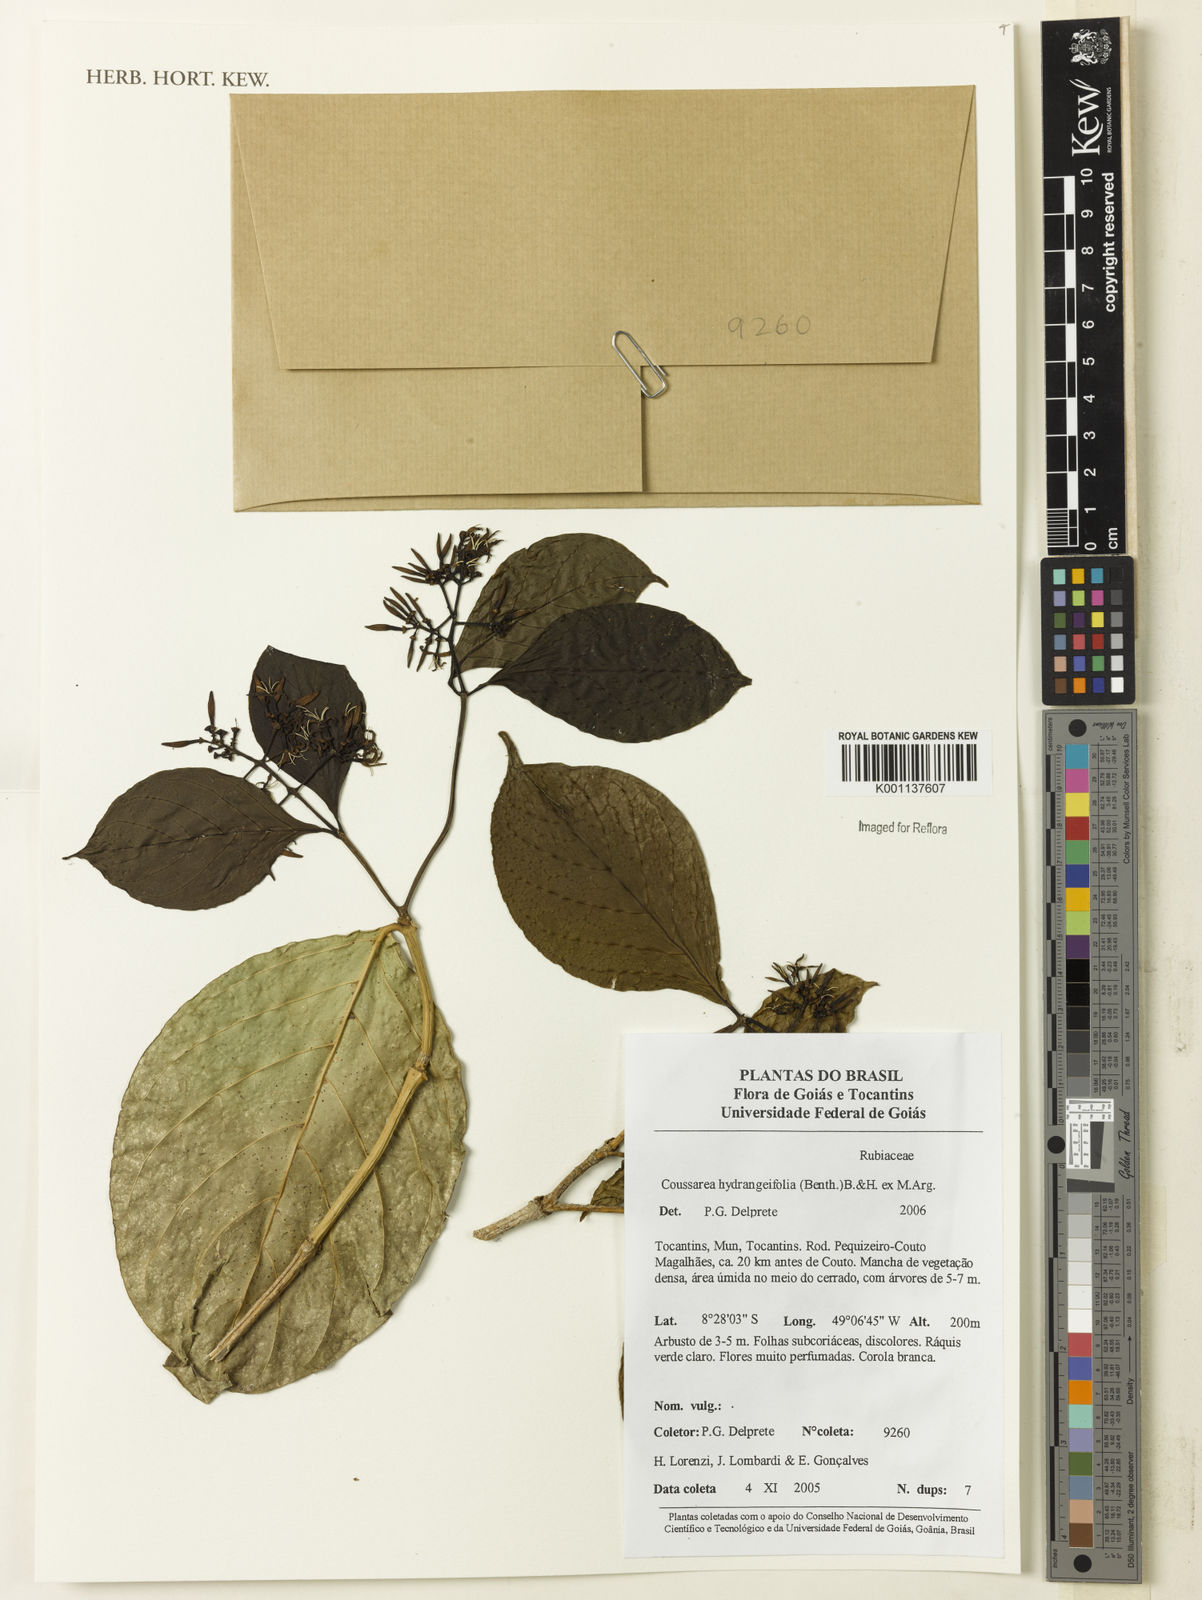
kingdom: Plantae
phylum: Tracheophyta
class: Magnoliopsida
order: Gentianales
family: Rubiaceae
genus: Coussarea
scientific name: Coussarea
